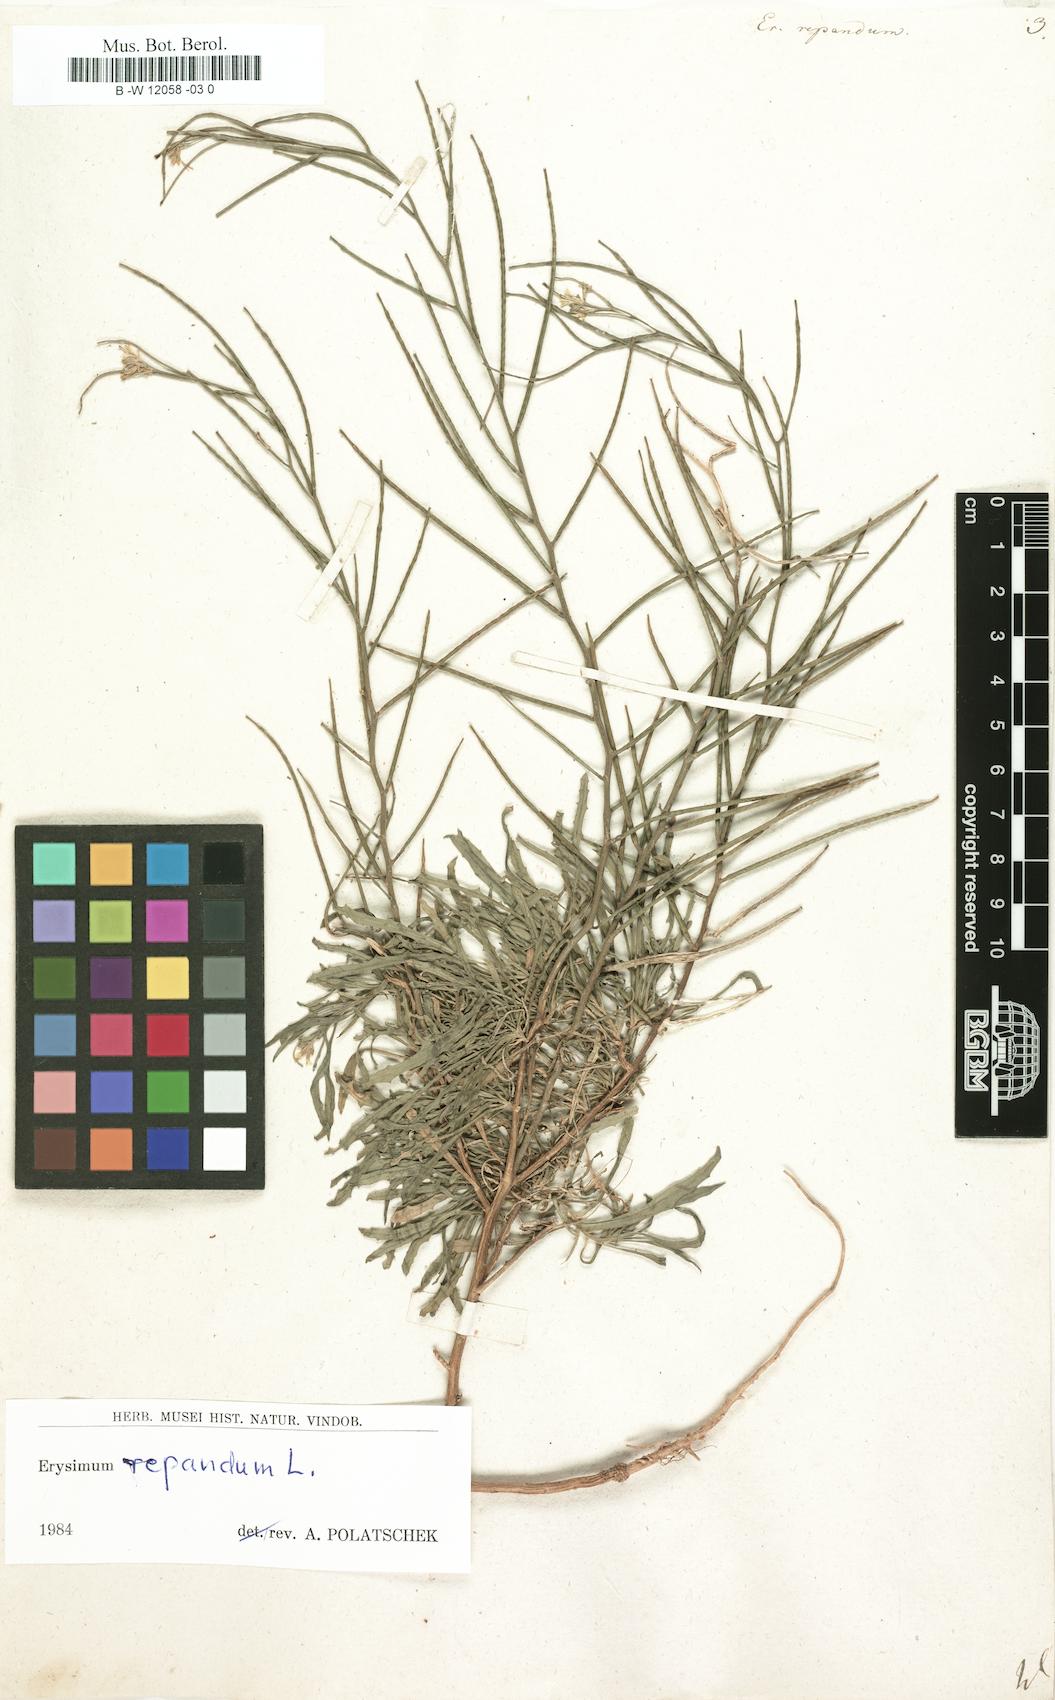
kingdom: Plantae
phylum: Tracheophyta
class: Magnoliopsida
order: Brassicales
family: Brassicaceae
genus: Erysimum
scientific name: Erysimum repandum
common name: Spreading wallflower
